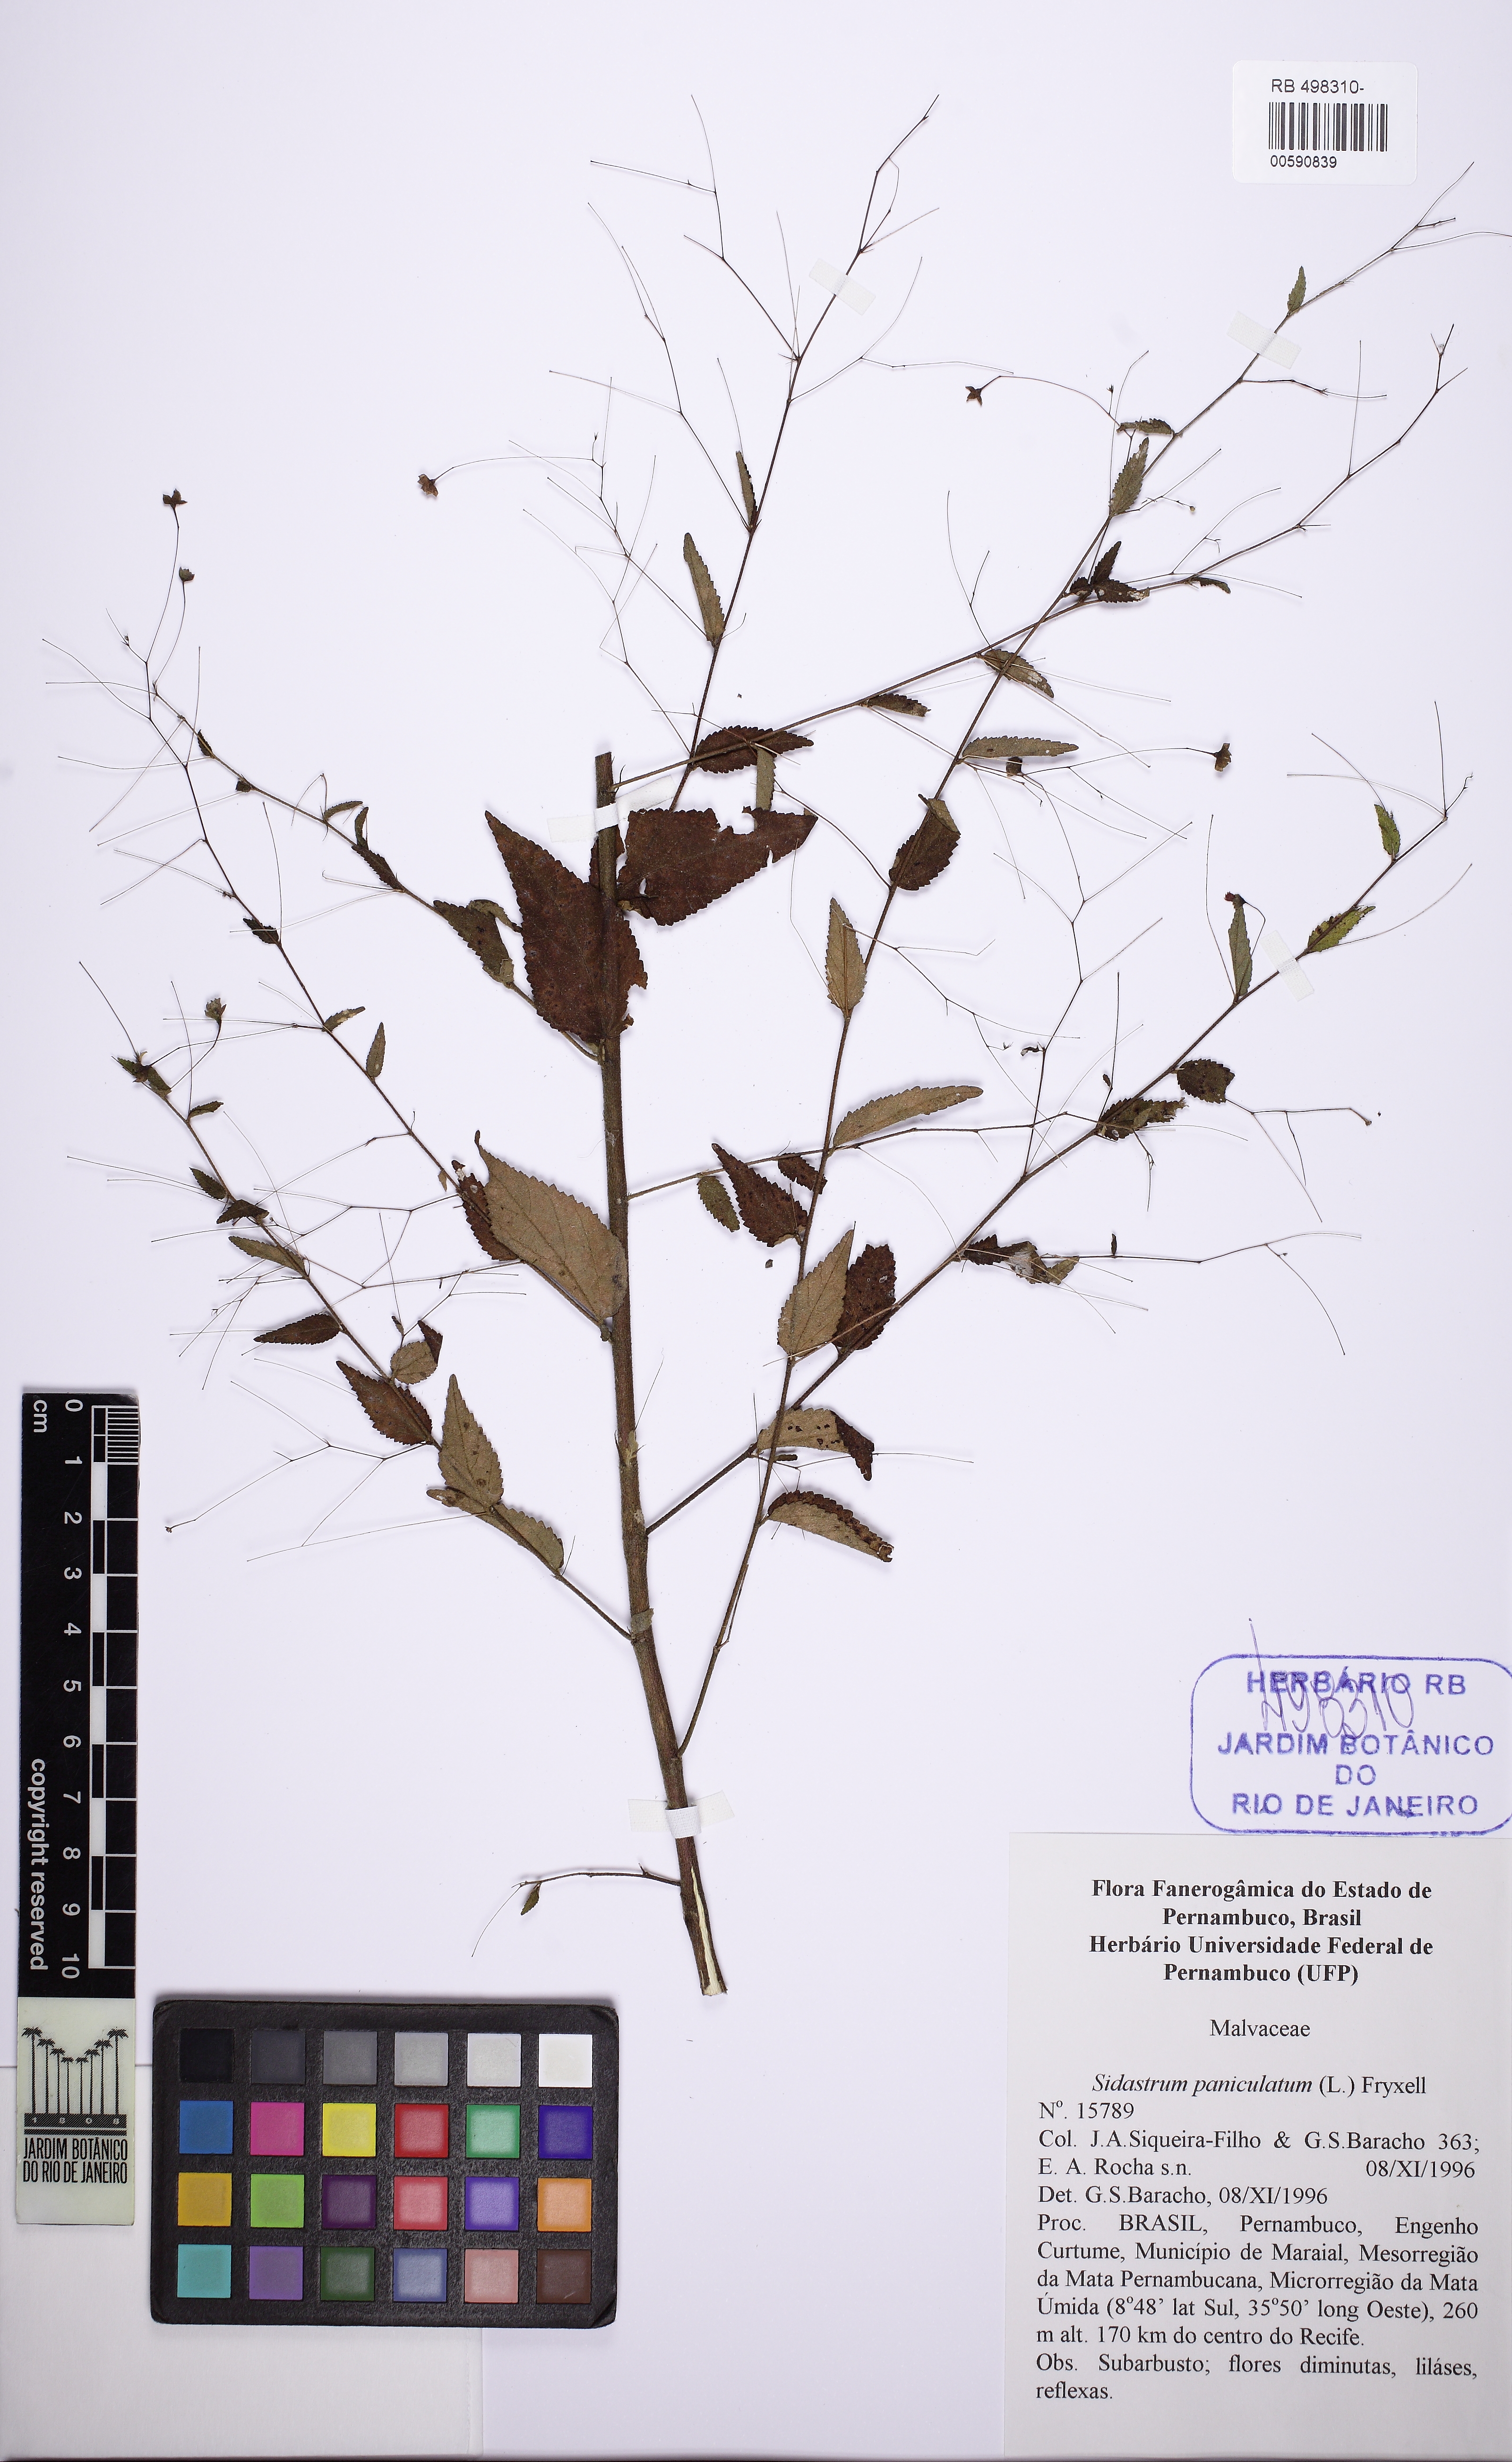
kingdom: Plantae
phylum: Tracheophyta
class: Magnoliopsida
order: Malvales
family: Malvaceae
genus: Sidastrum
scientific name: Sidastrum paniculatum
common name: Panicled sandmallow
